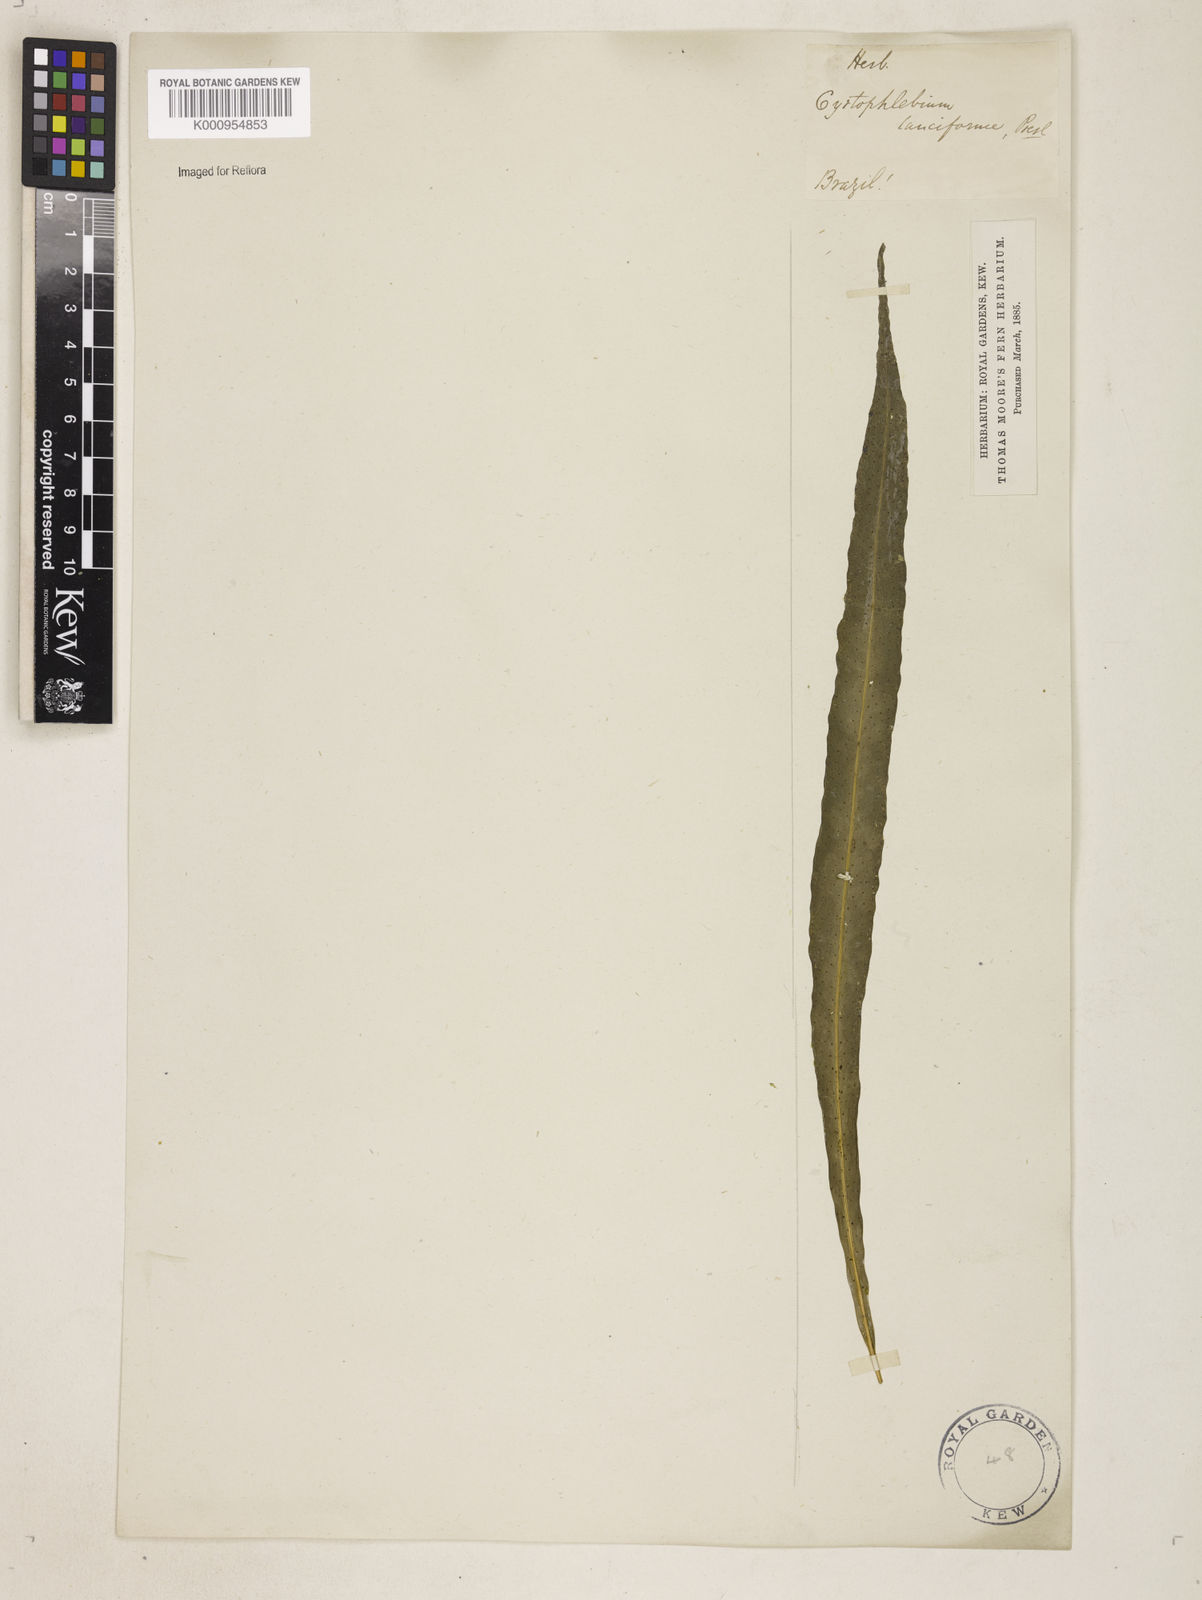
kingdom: Plantae
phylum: Tracheophyta
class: Polypodiopsida
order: Polypodiales
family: Polypodiaceae
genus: Campyloneurum
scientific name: Campyloneurum repens
